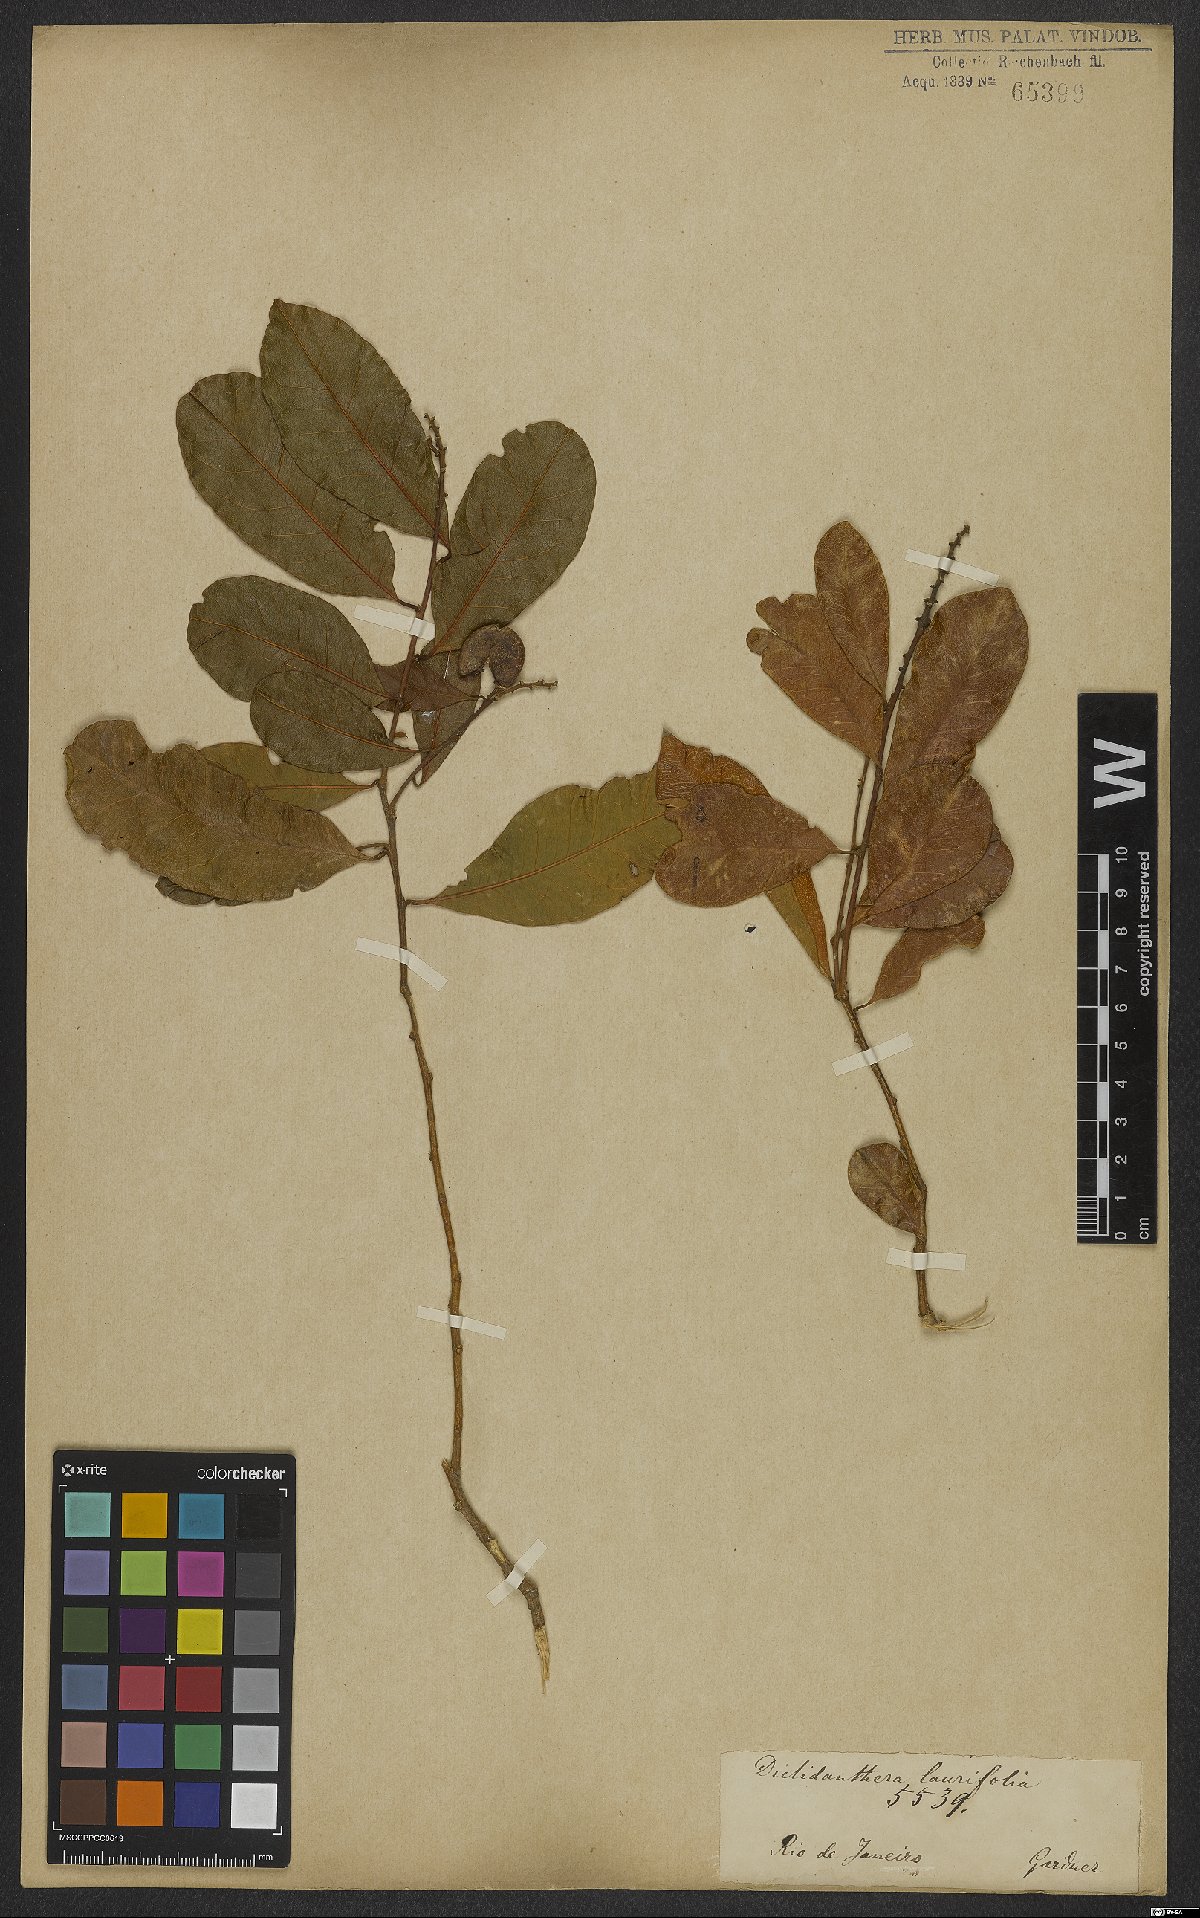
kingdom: Plantae
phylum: Tracheophyta
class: Magnoliopsida
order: Fabales
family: Polygalaceae
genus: Diclidanthera
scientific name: Diclidanthera laurifolia
